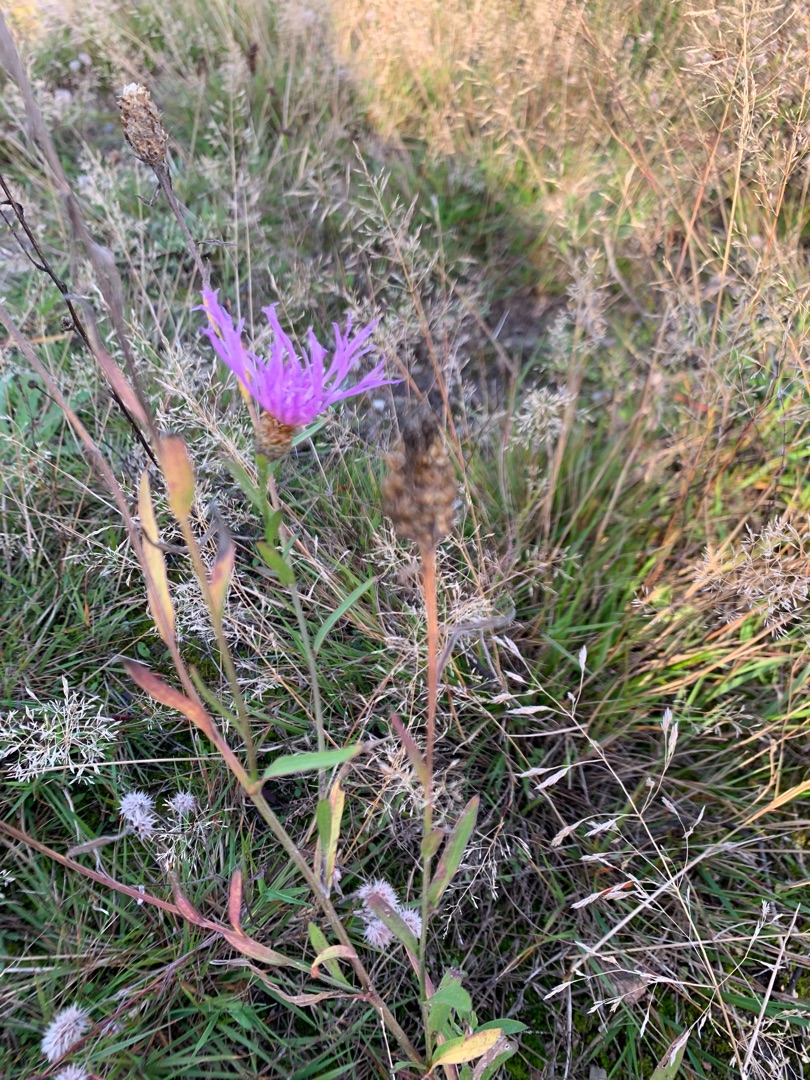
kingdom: Plantae
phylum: Tracheophyta
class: Magnoliopsida
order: Asterales
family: Asteraceae
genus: Centaurea
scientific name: Centaurea jacea
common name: Almindelig knopurt
